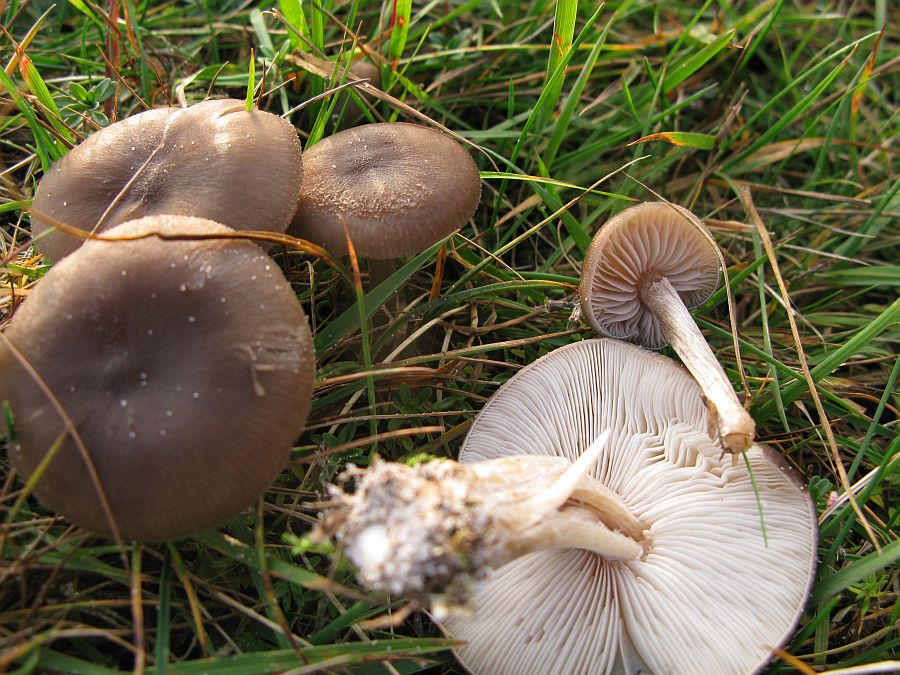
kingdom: Fungi
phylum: Basidiomycota
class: Agaricomycetes
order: Agaricales
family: Tricholomataceae
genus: Melanoleuca
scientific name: Melanoleuca polioleuca
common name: almindelig munkehat
